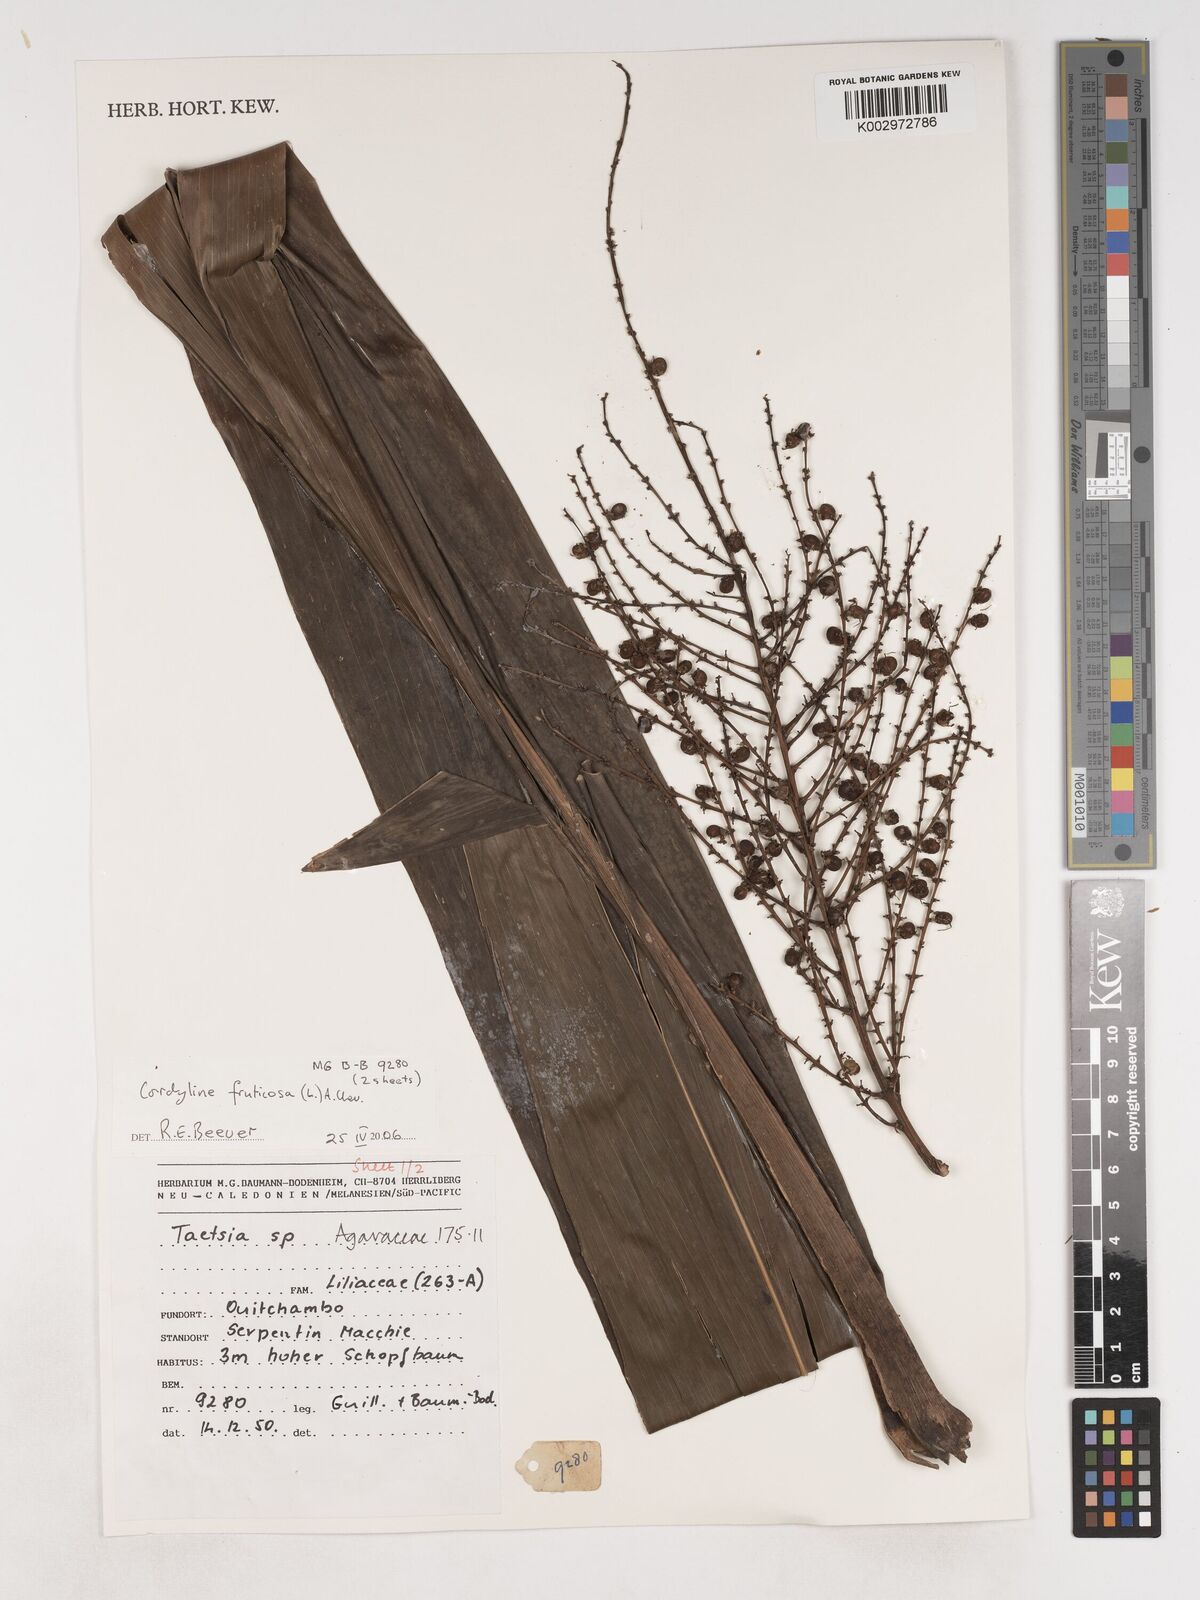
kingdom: Plantae
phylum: Tracheophyta
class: Liliopsida
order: Asparagales
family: Asparagaceae
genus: Cordyline
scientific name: Cordyline fruticosa
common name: Good-luck-plant
